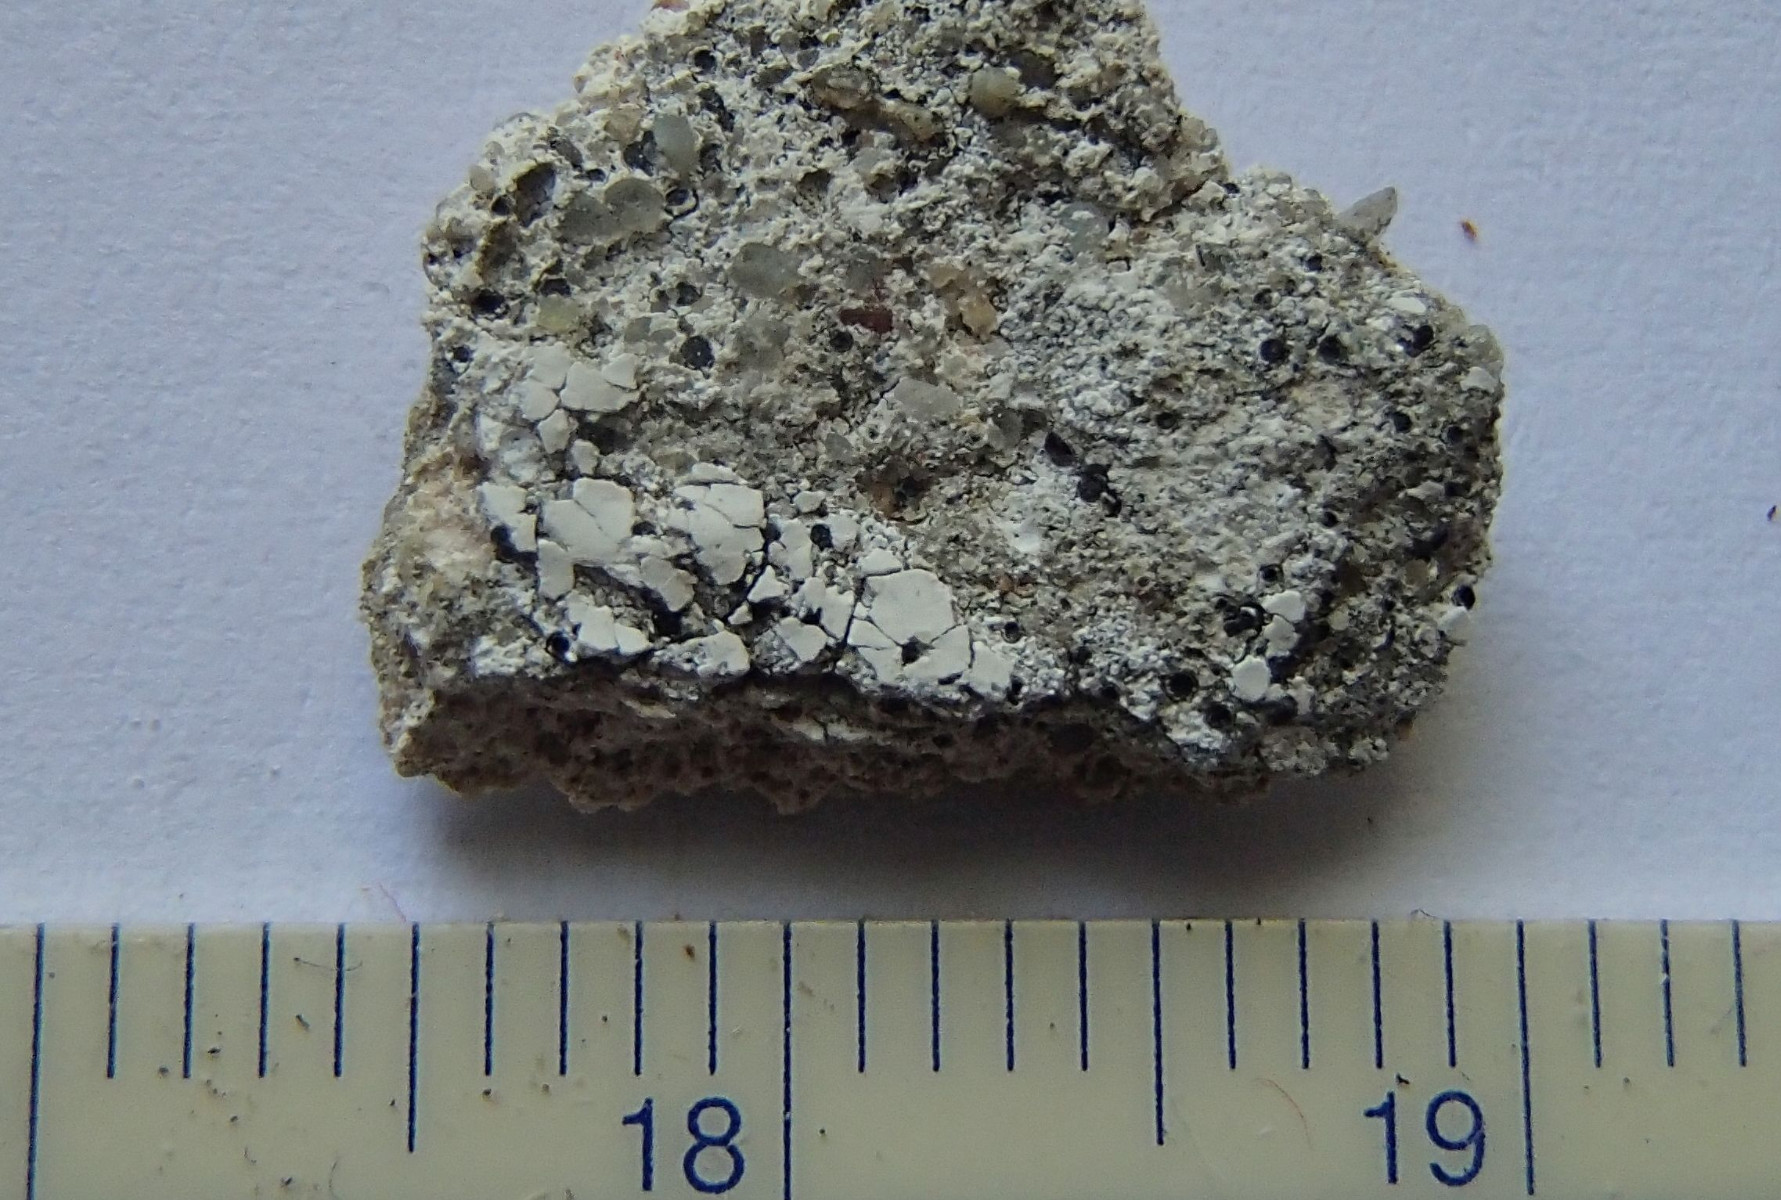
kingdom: Fungi
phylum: Ascomycota
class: Lecanoromycetes
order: Lecideales
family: Lecideaceae
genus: Clauzadea
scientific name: Clauzadea metzleri
